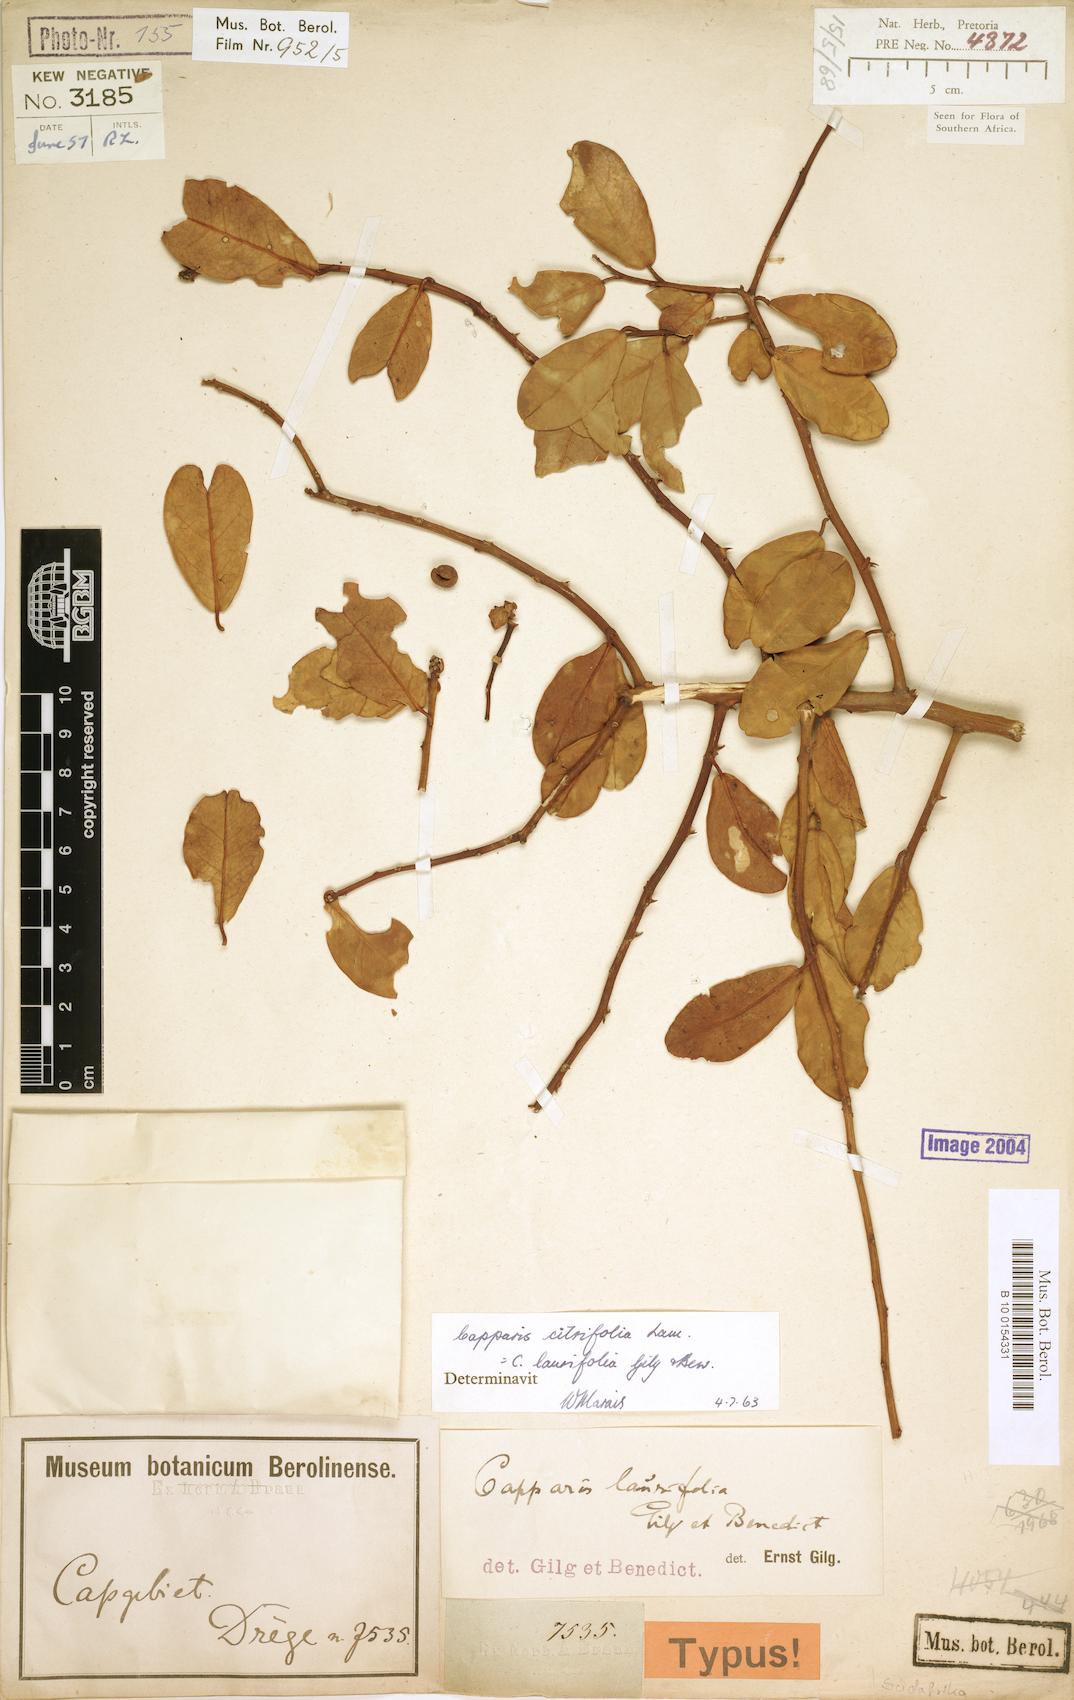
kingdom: Plantae
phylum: Tracheophyta
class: Magnoliopsida
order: Brassicales
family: Capparaceae
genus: Capparis
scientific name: Capparis sepiaria
